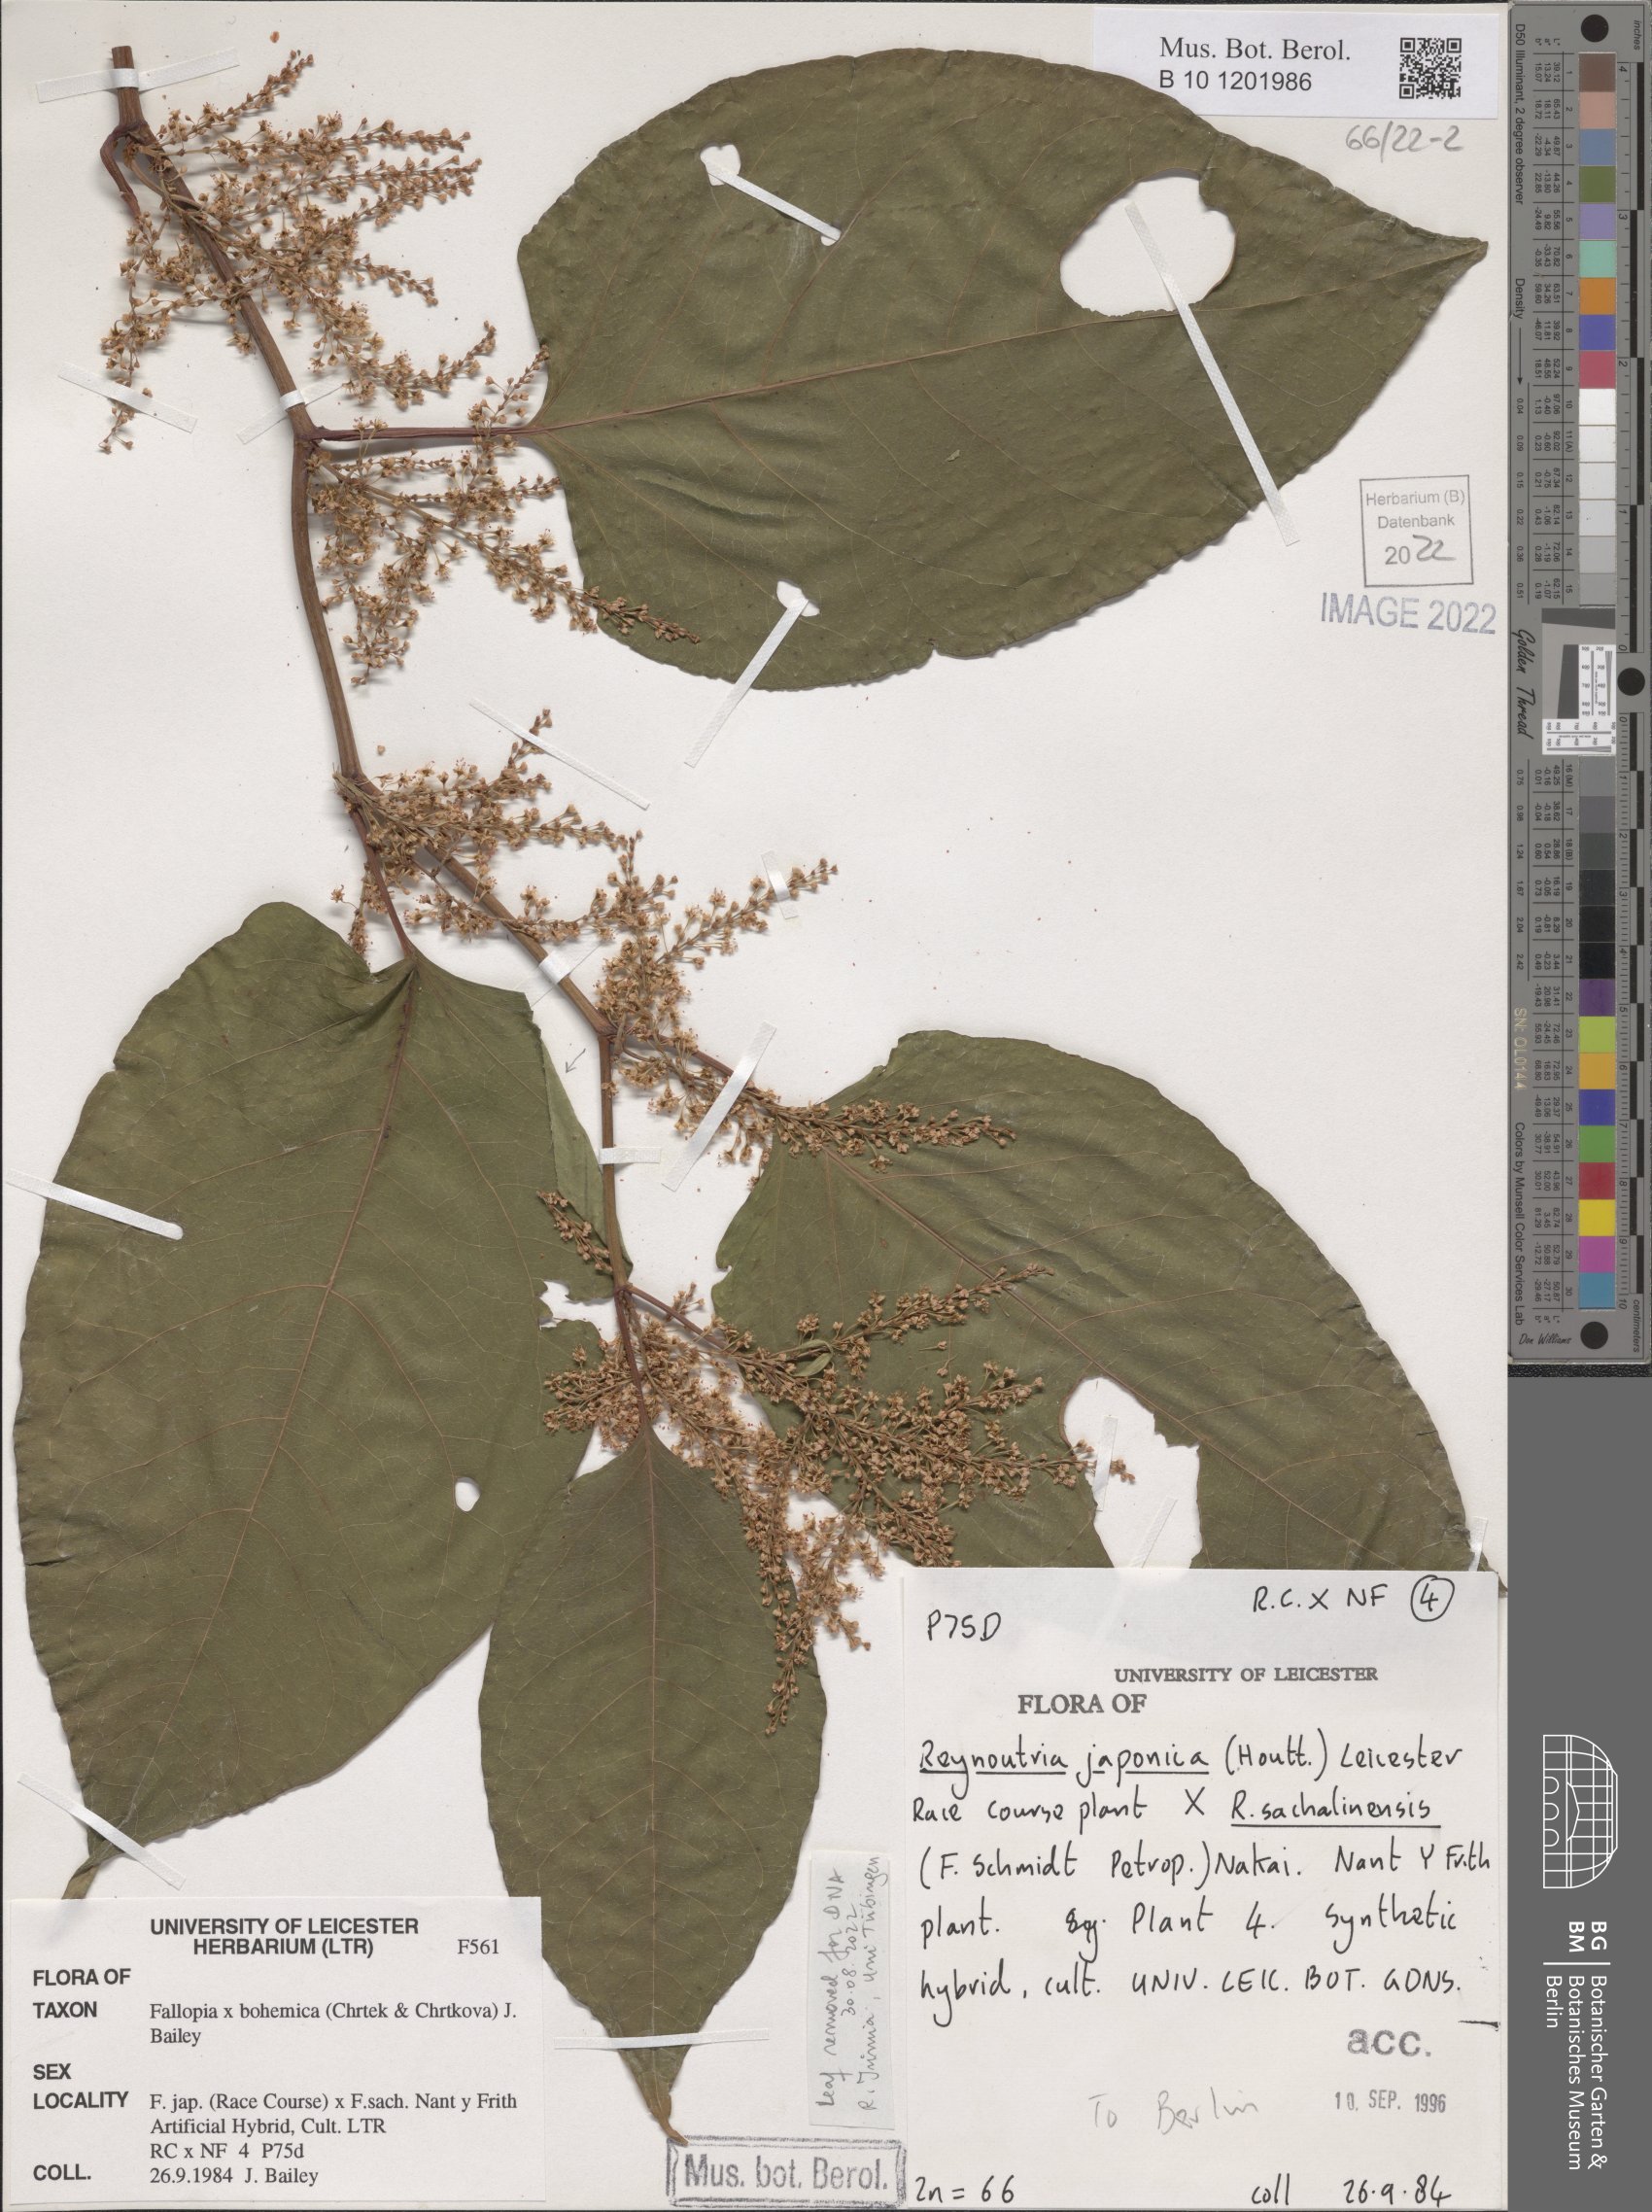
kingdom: Plantae
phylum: Tracheophyta
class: Magnoliopsida
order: Caryophyllales
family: Polygonaceae
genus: Reynoutria
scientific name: Reynoutria bohemica
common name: Bohemian knotweed
